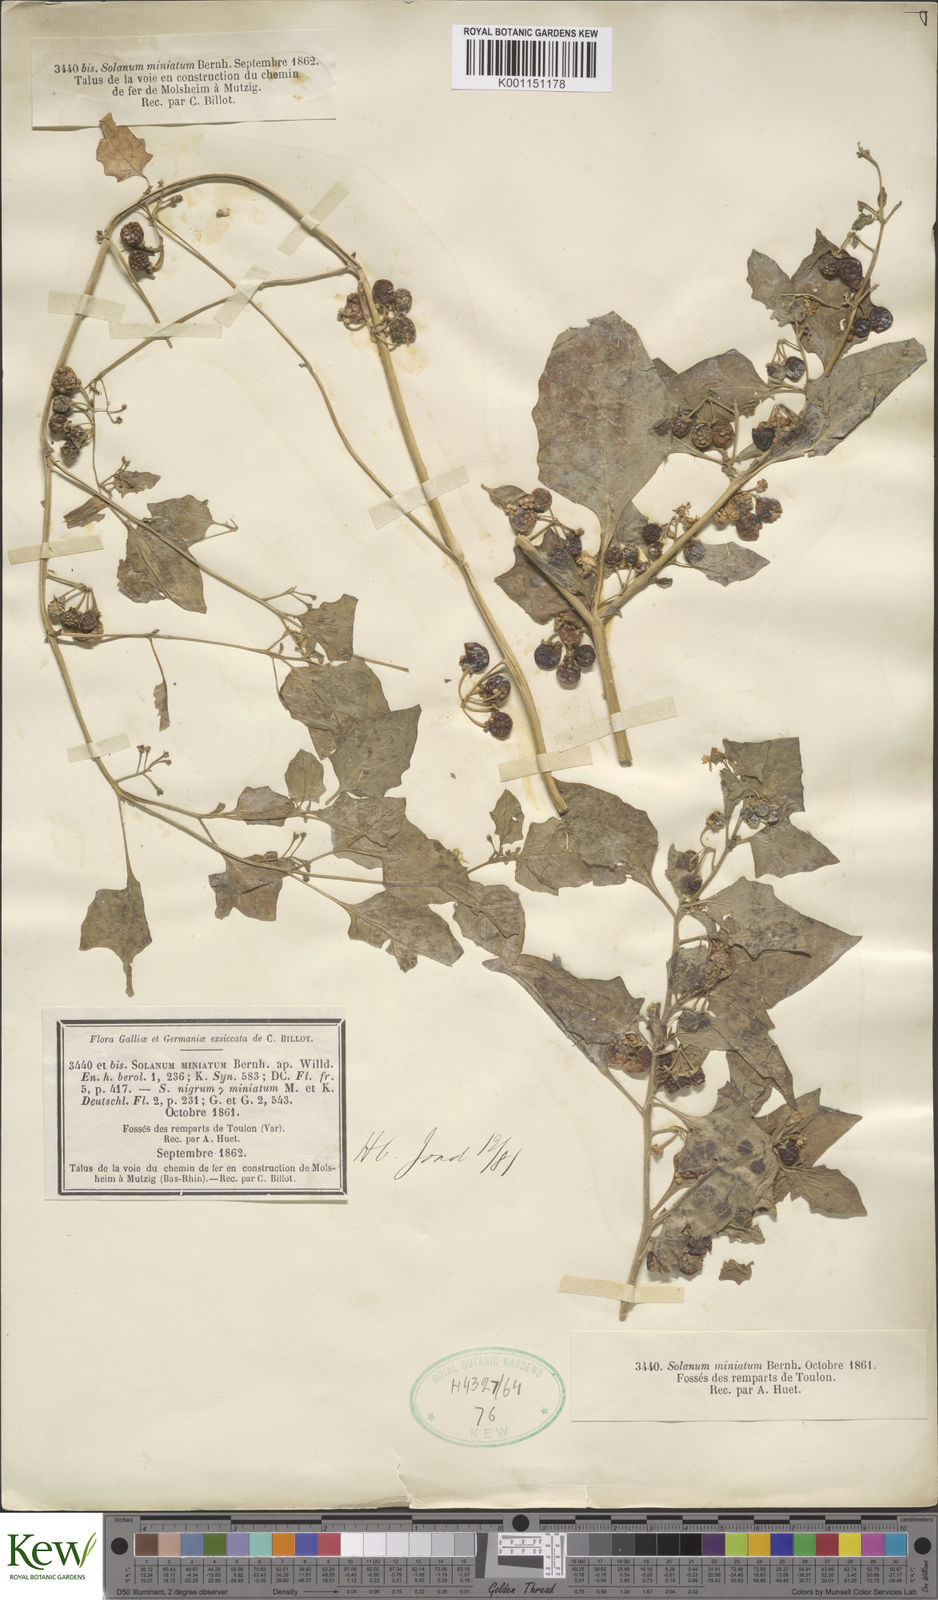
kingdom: Plantae
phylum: Tracheophyta
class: Magnoliopsida
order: Solanales
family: Solanaceae
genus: Solanum
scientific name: Solanum alatum
